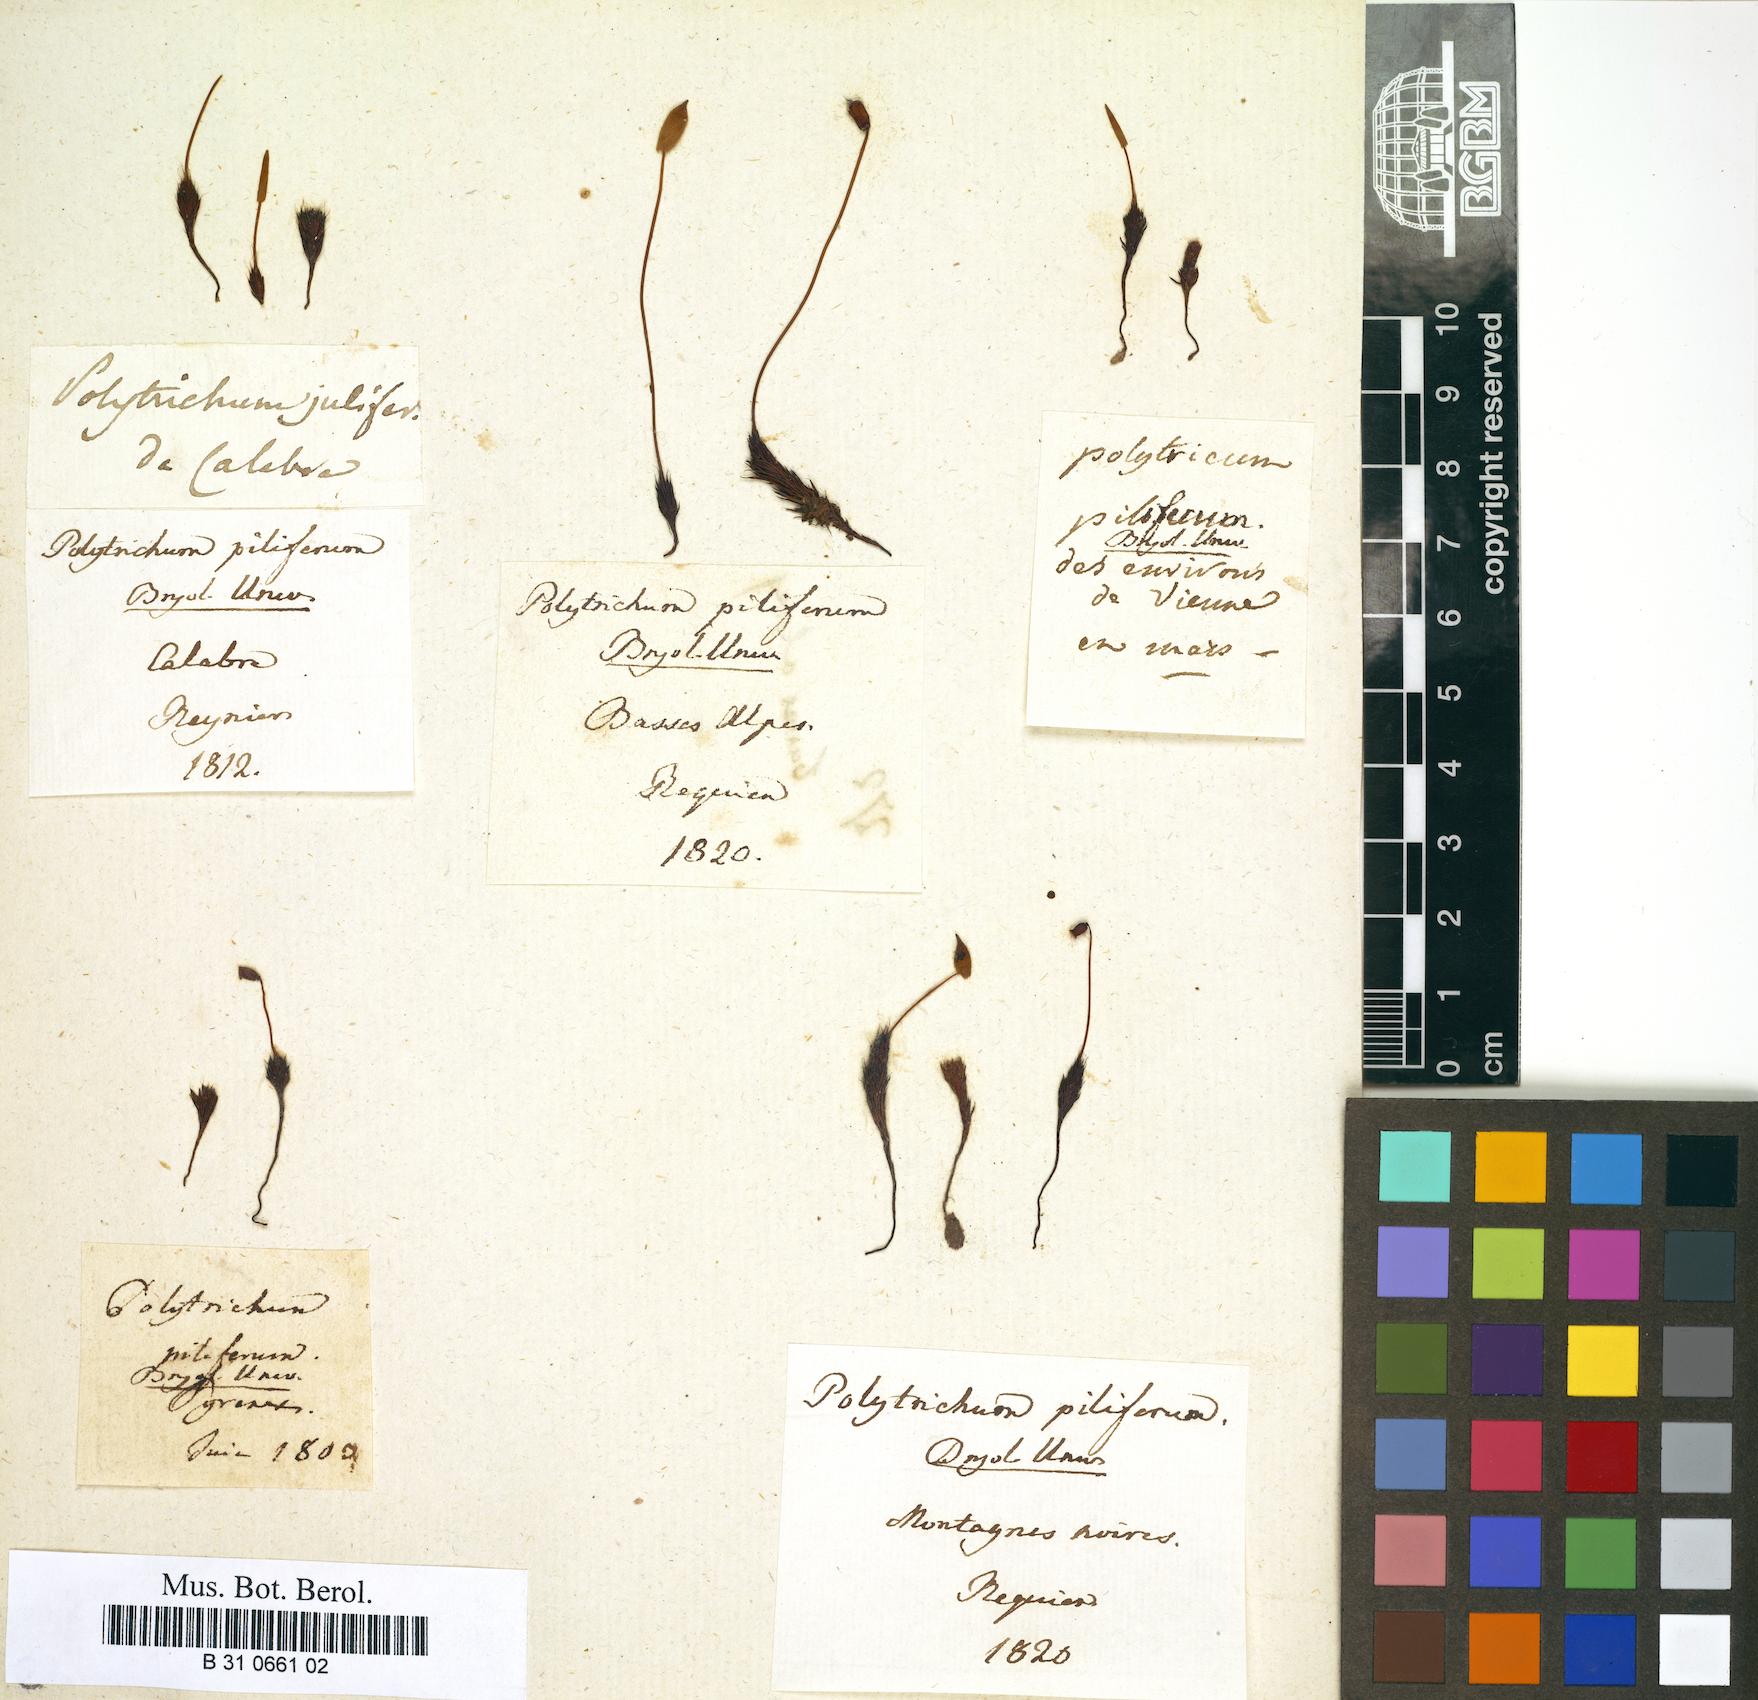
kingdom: Plantae
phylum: Bryophyta
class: Polytrichopsida
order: Polytrichales
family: Polytrichaceae
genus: Polytrichum
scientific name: Polytrichum piliferum
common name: Bristly haircap
